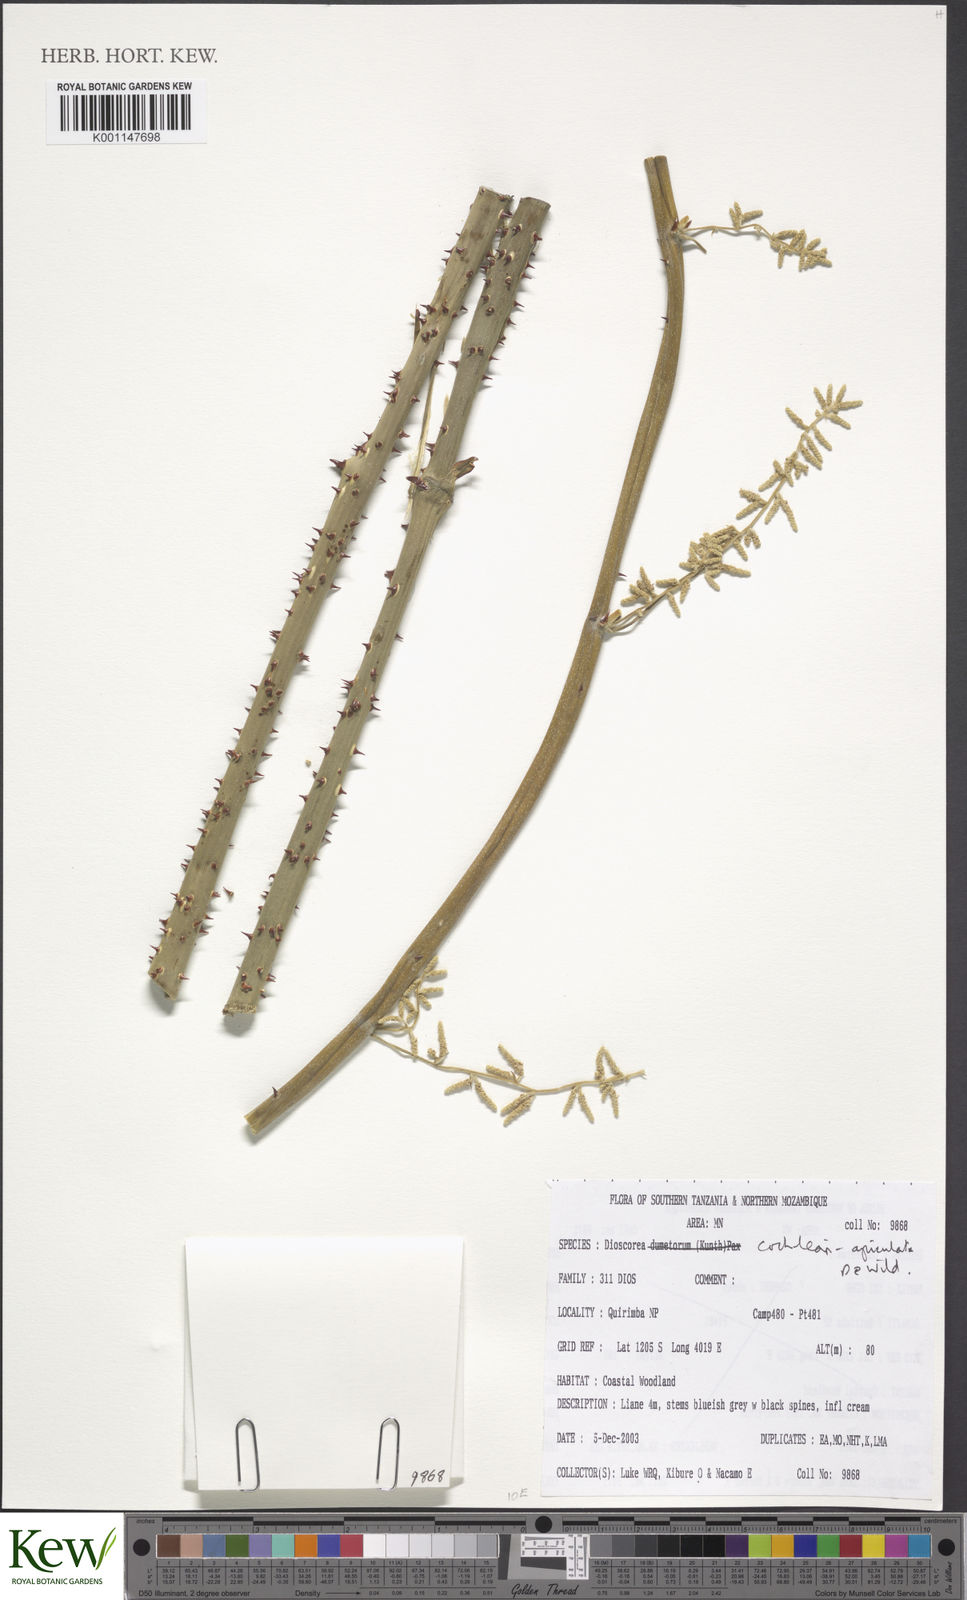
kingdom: Plantae
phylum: Tracheophyta
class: Liliopsida
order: Dioscoreales
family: Dioscoreaceae
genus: Dioscorea
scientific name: Dioscorea cochleariapiculata
